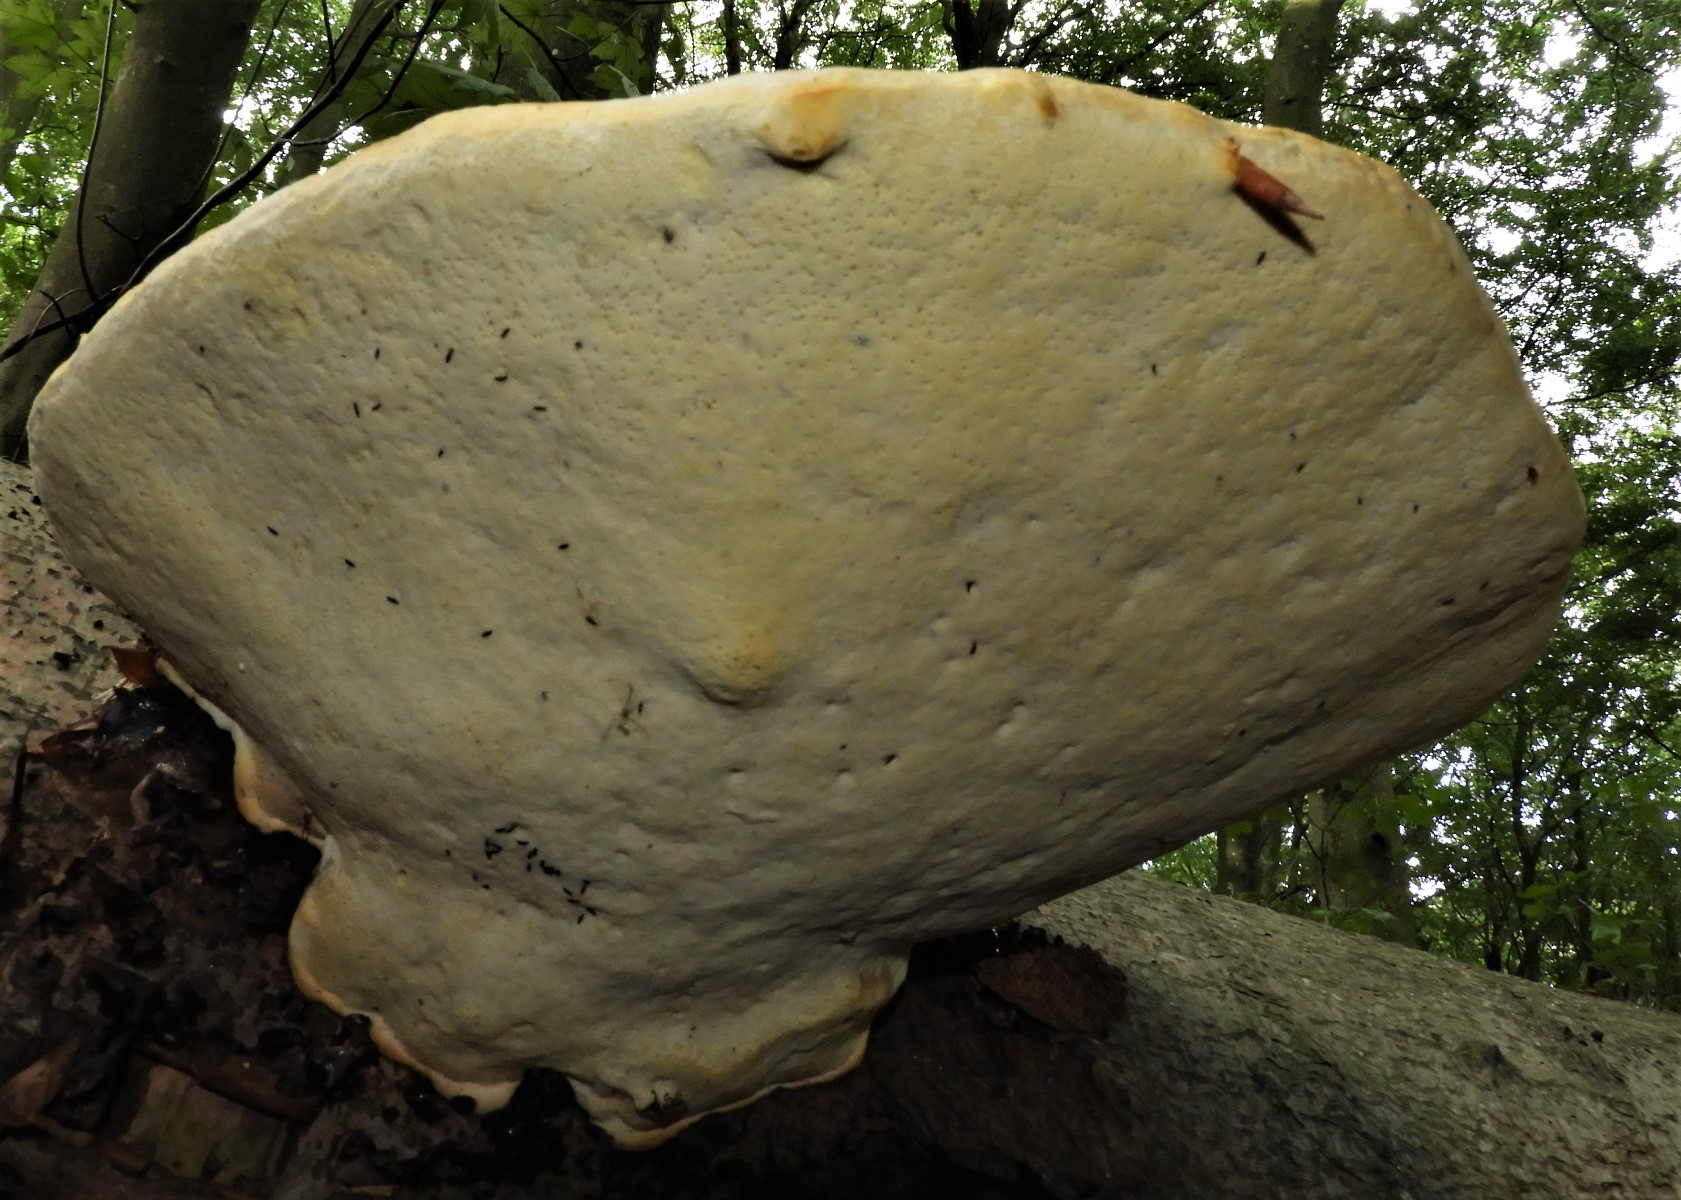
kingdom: Fungi
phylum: Basidiomycota
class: Agaricomycetes
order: Polyporales
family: Fomitopsidaceae
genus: Fomitopsis
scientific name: Fomitopsis pinicola
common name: randbæltet hovporesvamp
